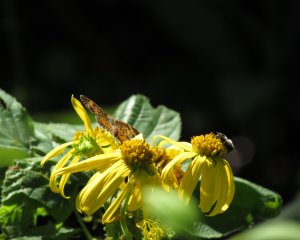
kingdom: Animalia
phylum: Arthropoda
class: Insecta
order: Lepidoptera
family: Nymphalidae
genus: Phyciodes
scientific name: Phyciodes
